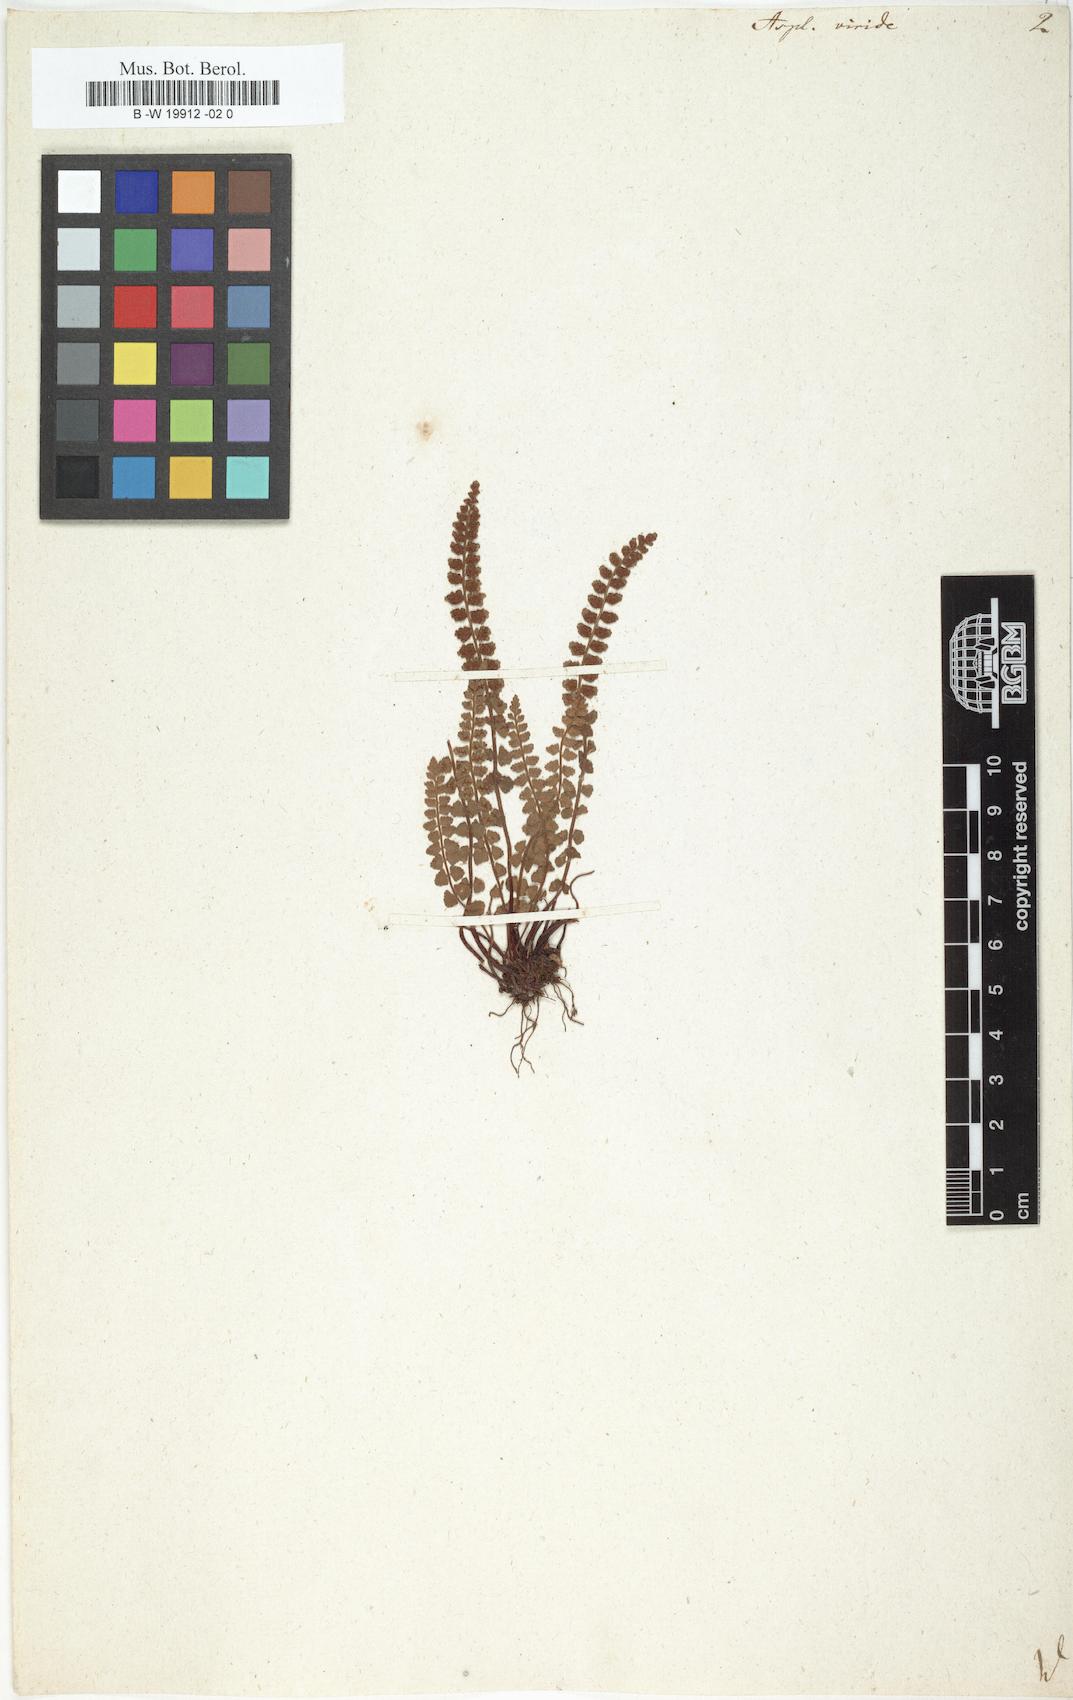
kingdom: Plantae
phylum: Tracheophyta
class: Polypodiopsida
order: Polypodiales
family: Aspleniaceae
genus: Asplenium
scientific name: Asplenium viride
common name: Green spleenwort
